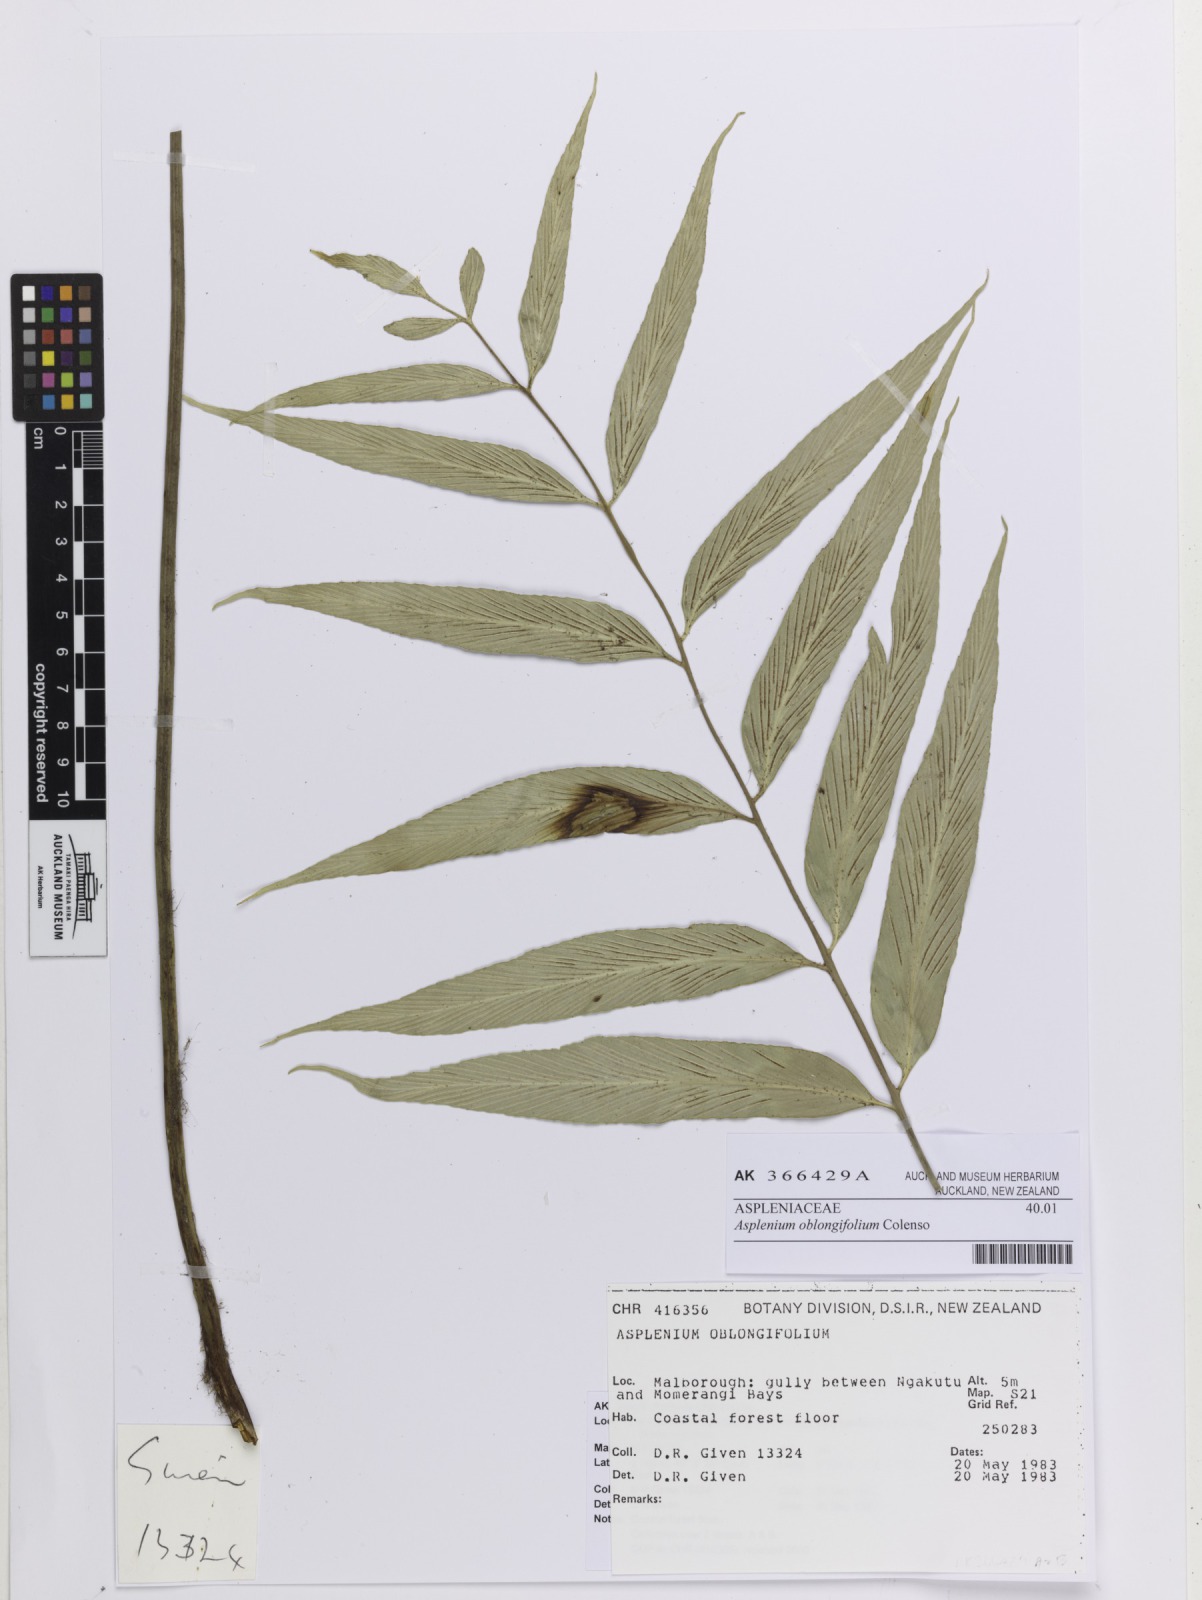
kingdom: Plantae
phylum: Tracheophyta
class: Polypodiopsida
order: Polypodiales
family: Aspleniaceae
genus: Asplenium
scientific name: Asplenium oblongifolium
